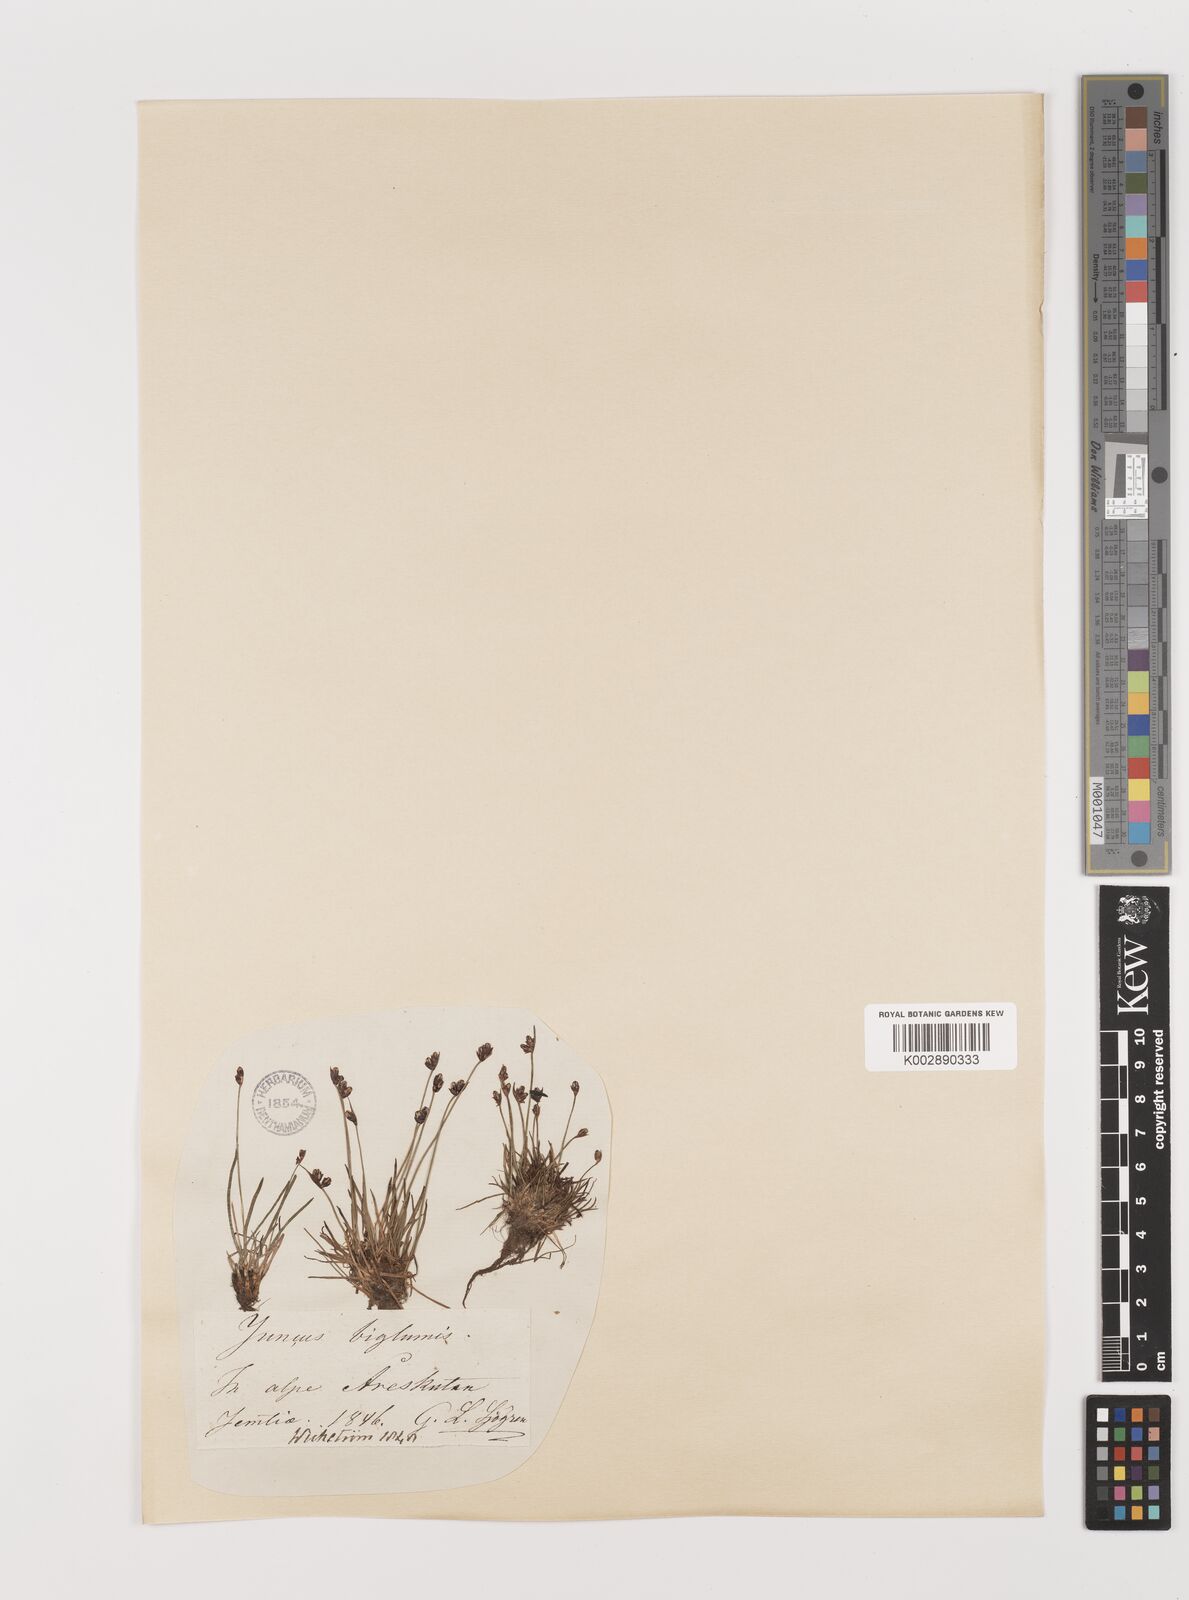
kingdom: Plantae
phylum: Tracheophyta
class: Liliopsida
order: Poales
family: Juncaceae
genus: Juncus
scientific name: Juncus biglumis
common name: Two-flowered rush
